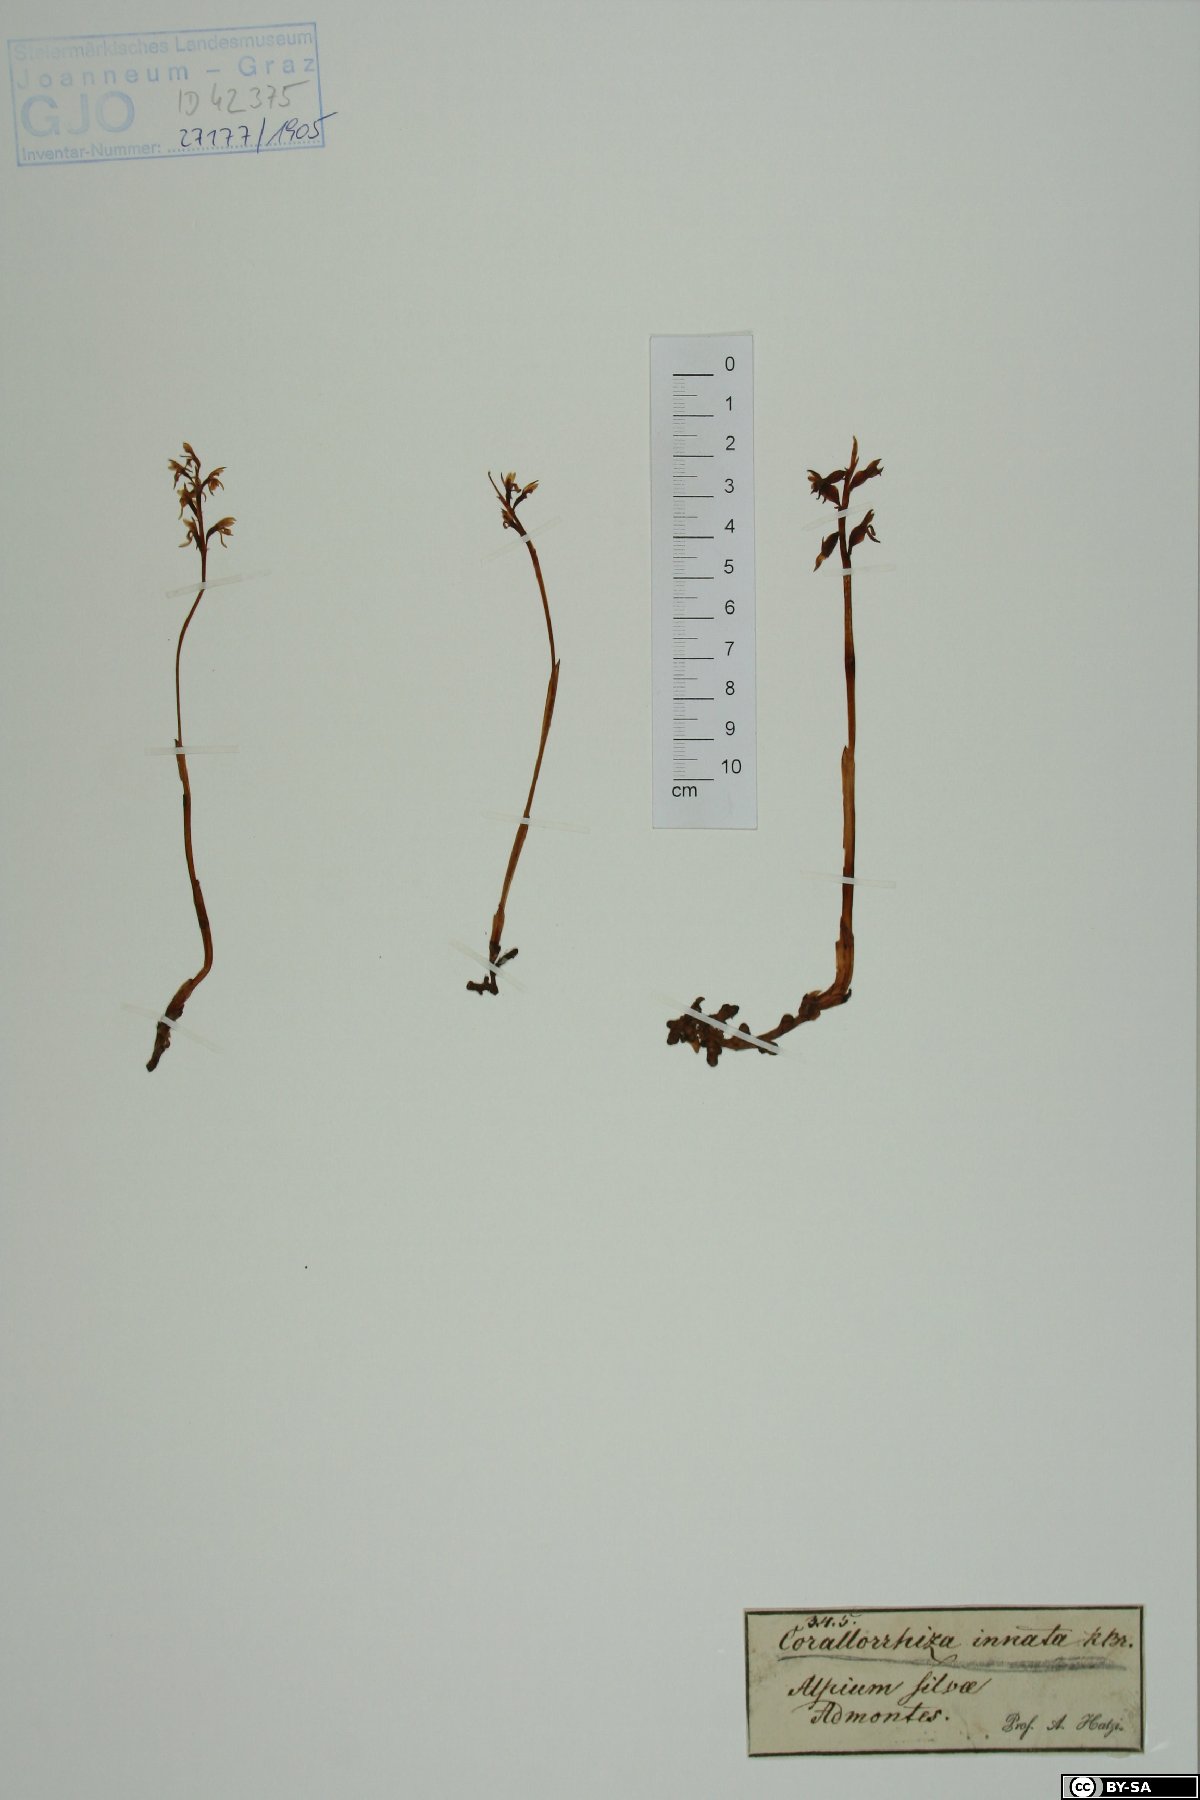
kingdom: Plantae
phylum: Tracheophyta
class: Liliopsida
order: Asparagales
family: Orchidaceae
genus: Corallorhiza
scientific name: Corallorhiza trifida
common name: Yellow coralroot
